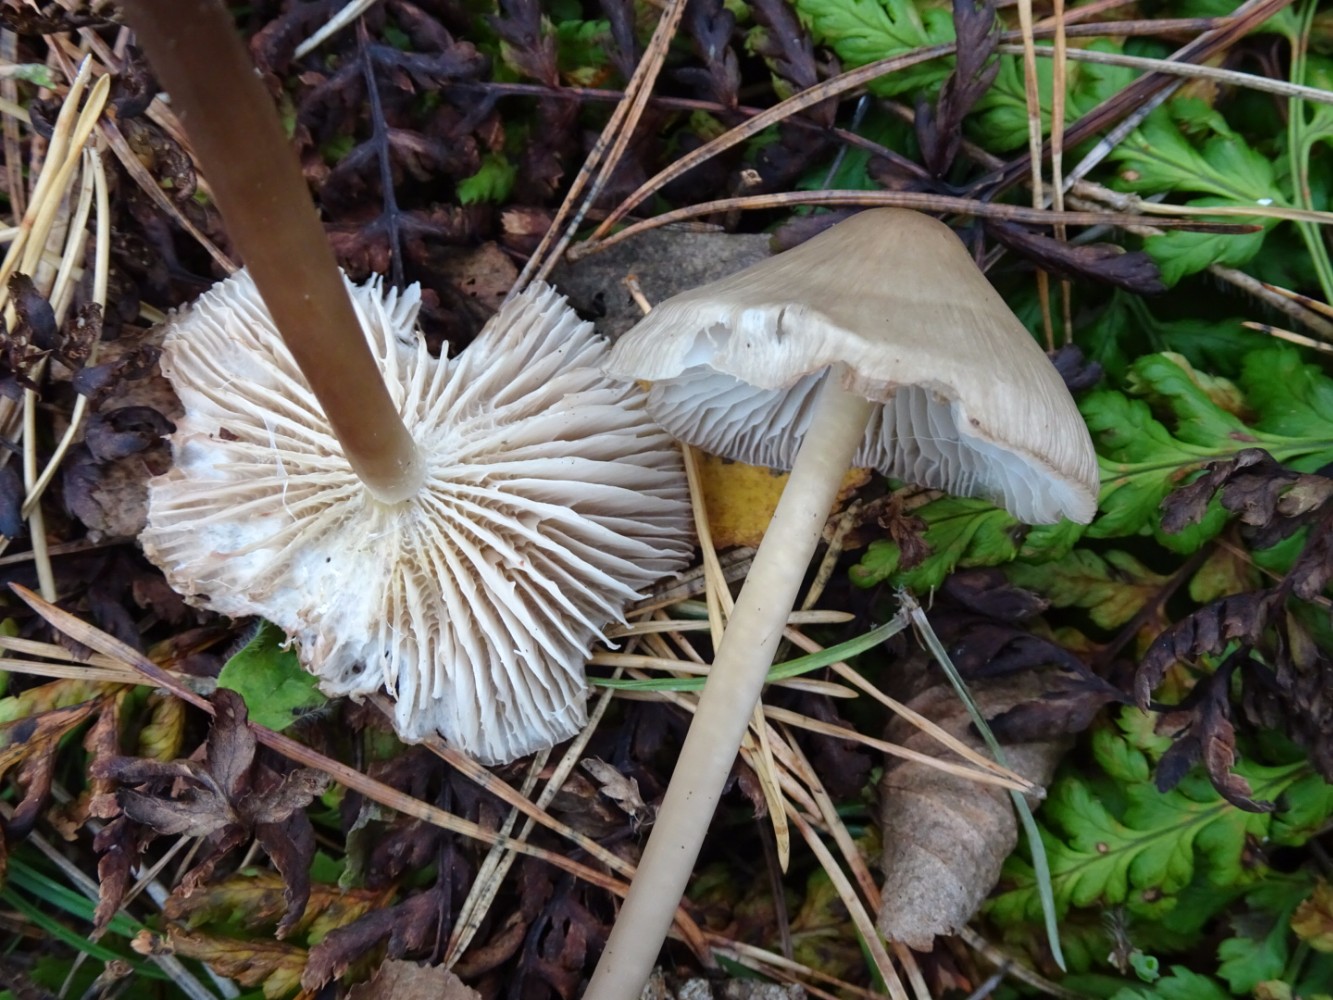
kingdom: Fungi
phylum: Basidiomycota
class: Agaricomycetes
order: Agaricales
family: Mycenaceae
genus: Mycena
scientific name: Mycena galericulata
